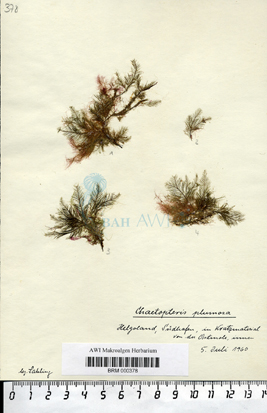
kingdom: Chromista
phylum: Ochrophyta
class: Phaeophyceae
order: Sphacelariales
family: Sphacelariaceae
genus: Chaetopteris
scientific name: Chaetopteris plumosa
